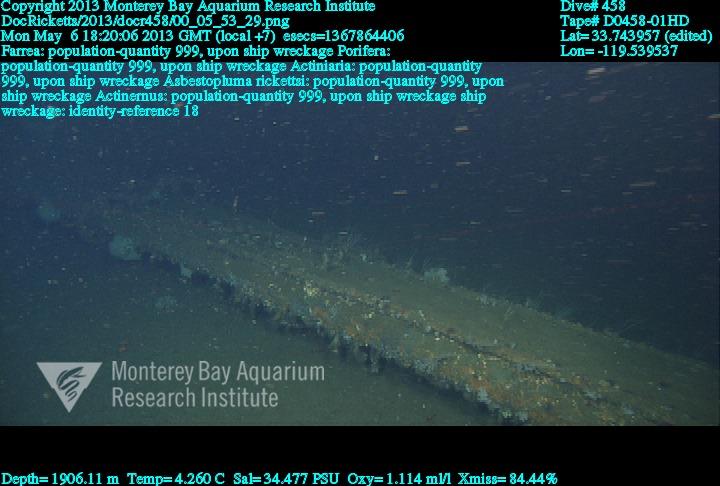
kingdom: Animalia
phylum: Porifera
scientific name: Porifera
